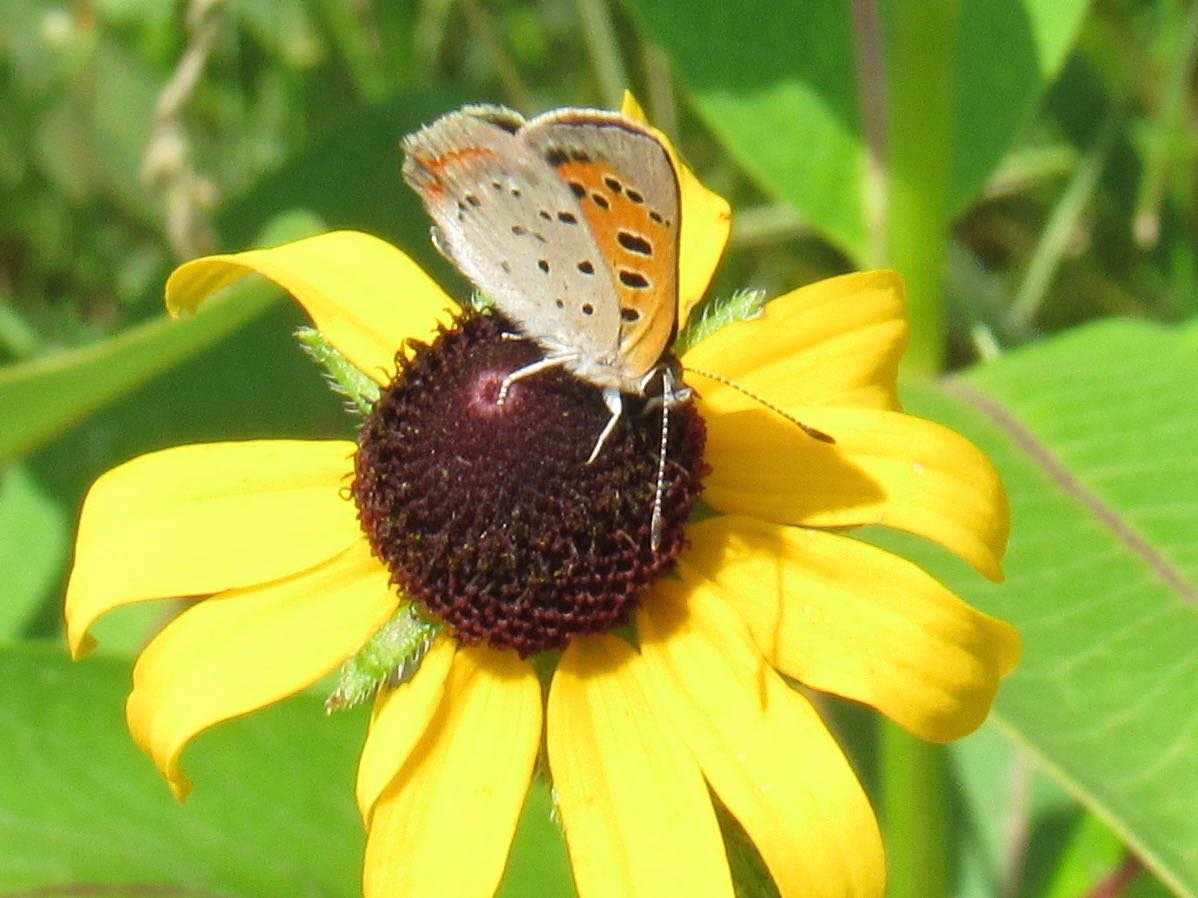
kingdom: Animalia
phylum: Arthropoda
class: Insecta
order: Lepidoptera
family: Lycaenidae
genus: Lycaena
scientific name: Lycaena phlaeas
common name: American Copper
